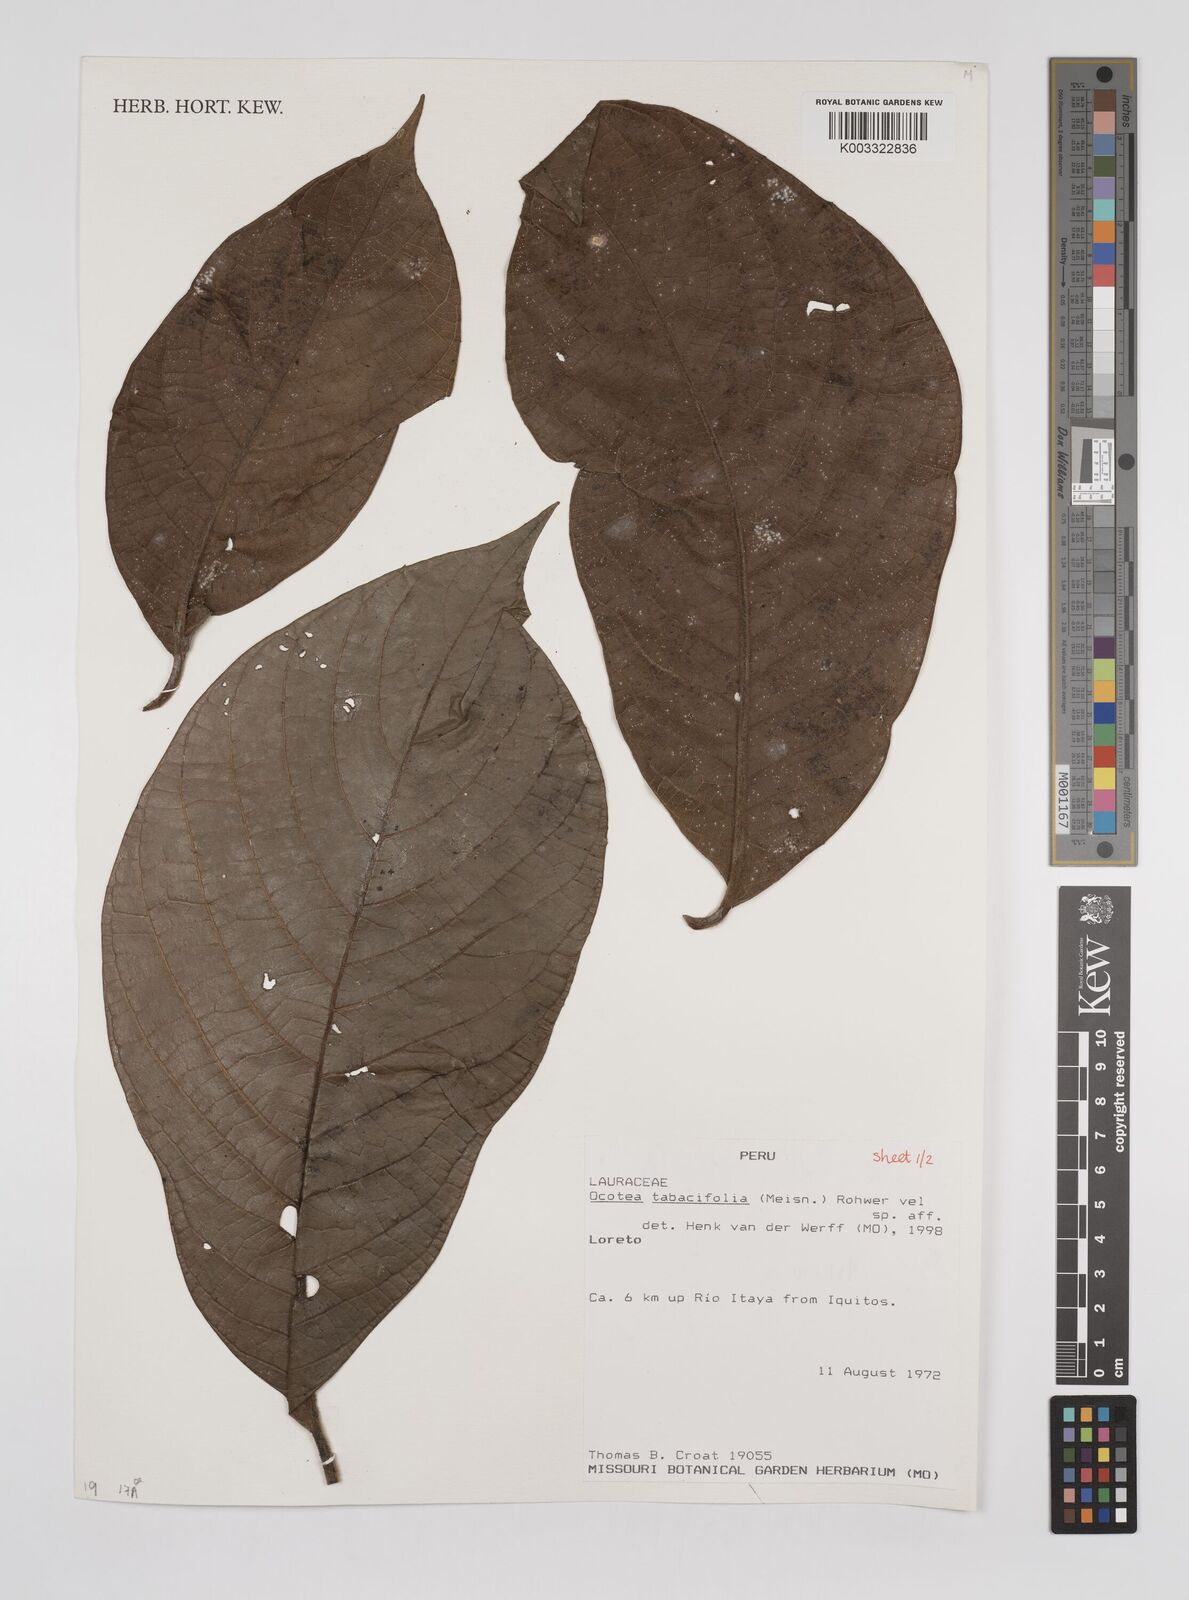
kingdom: Plantae
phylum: Tracheophyta
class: Magnoliopsida
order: Laurales
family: Lauraceae
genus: Ocotea
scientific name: Ocotea tabacifolia
